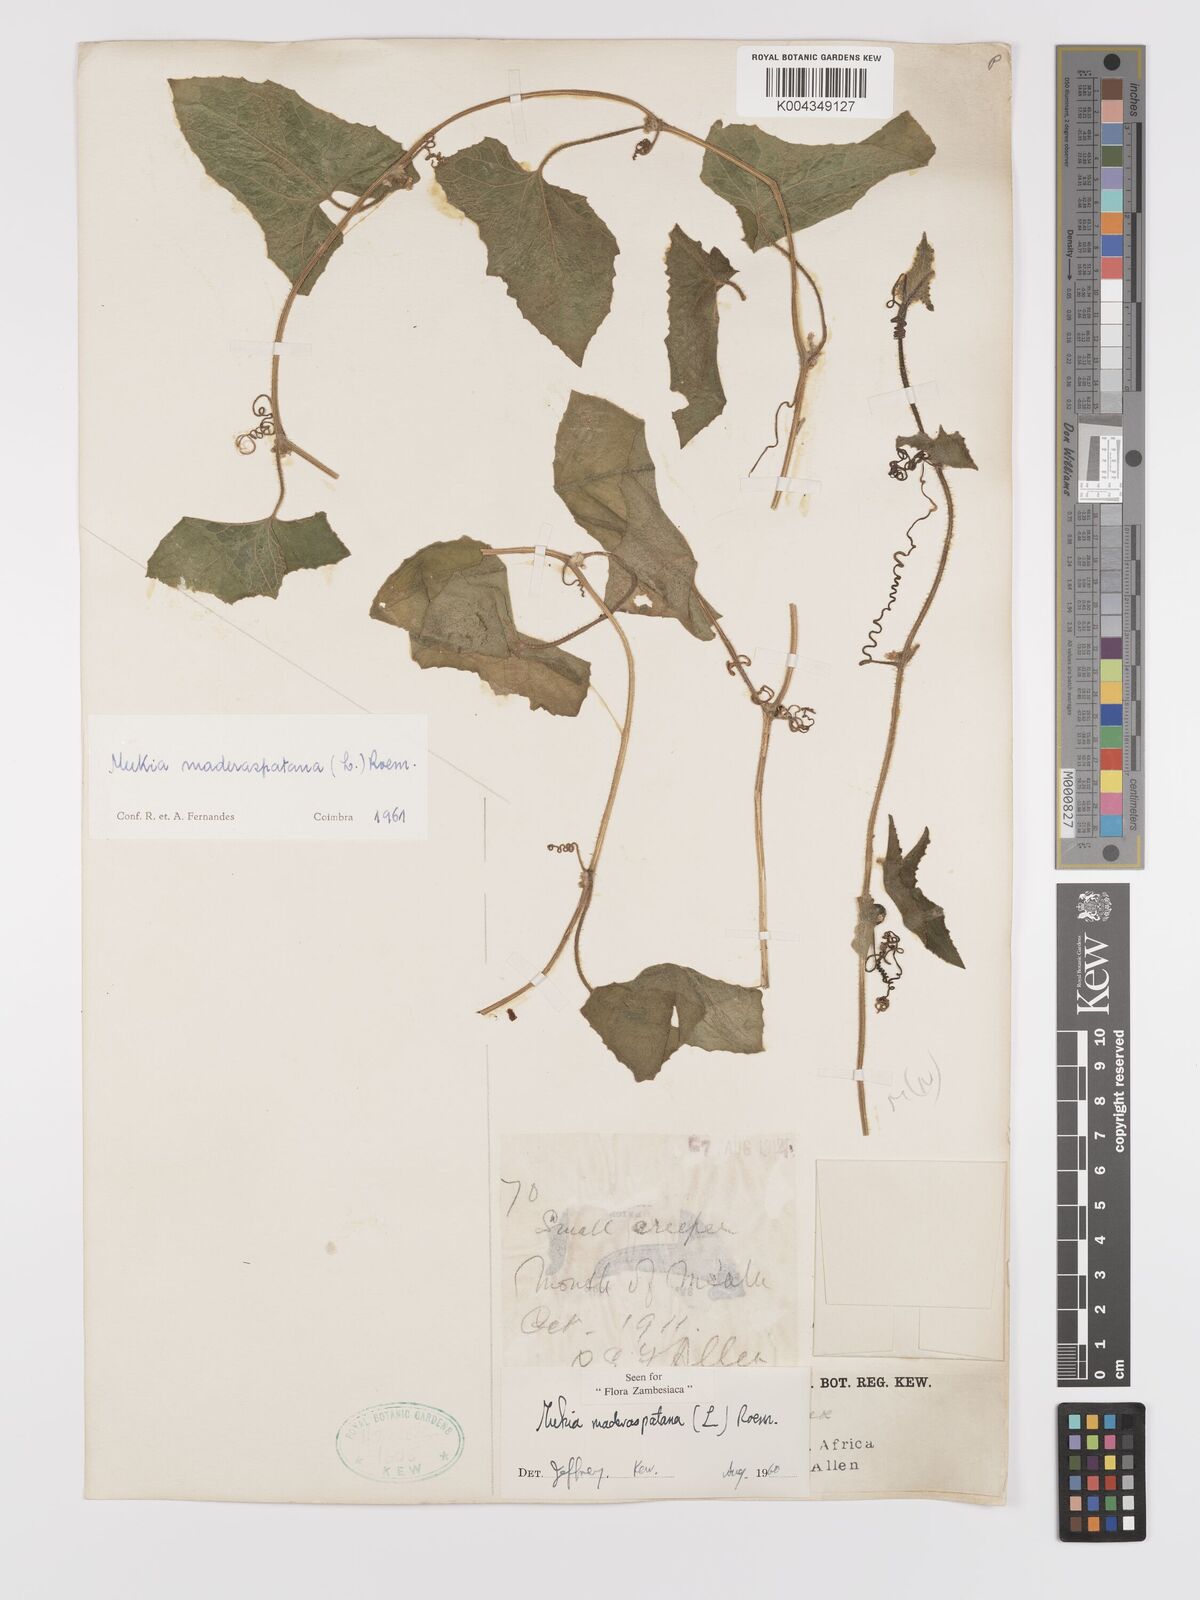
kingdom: Plantae
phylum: Tracheophyta
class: Magnoliopsida
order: Cucurbitales
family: Cucurbitaceae
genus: Cucumis
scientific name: Cucumis maderaspatanus
